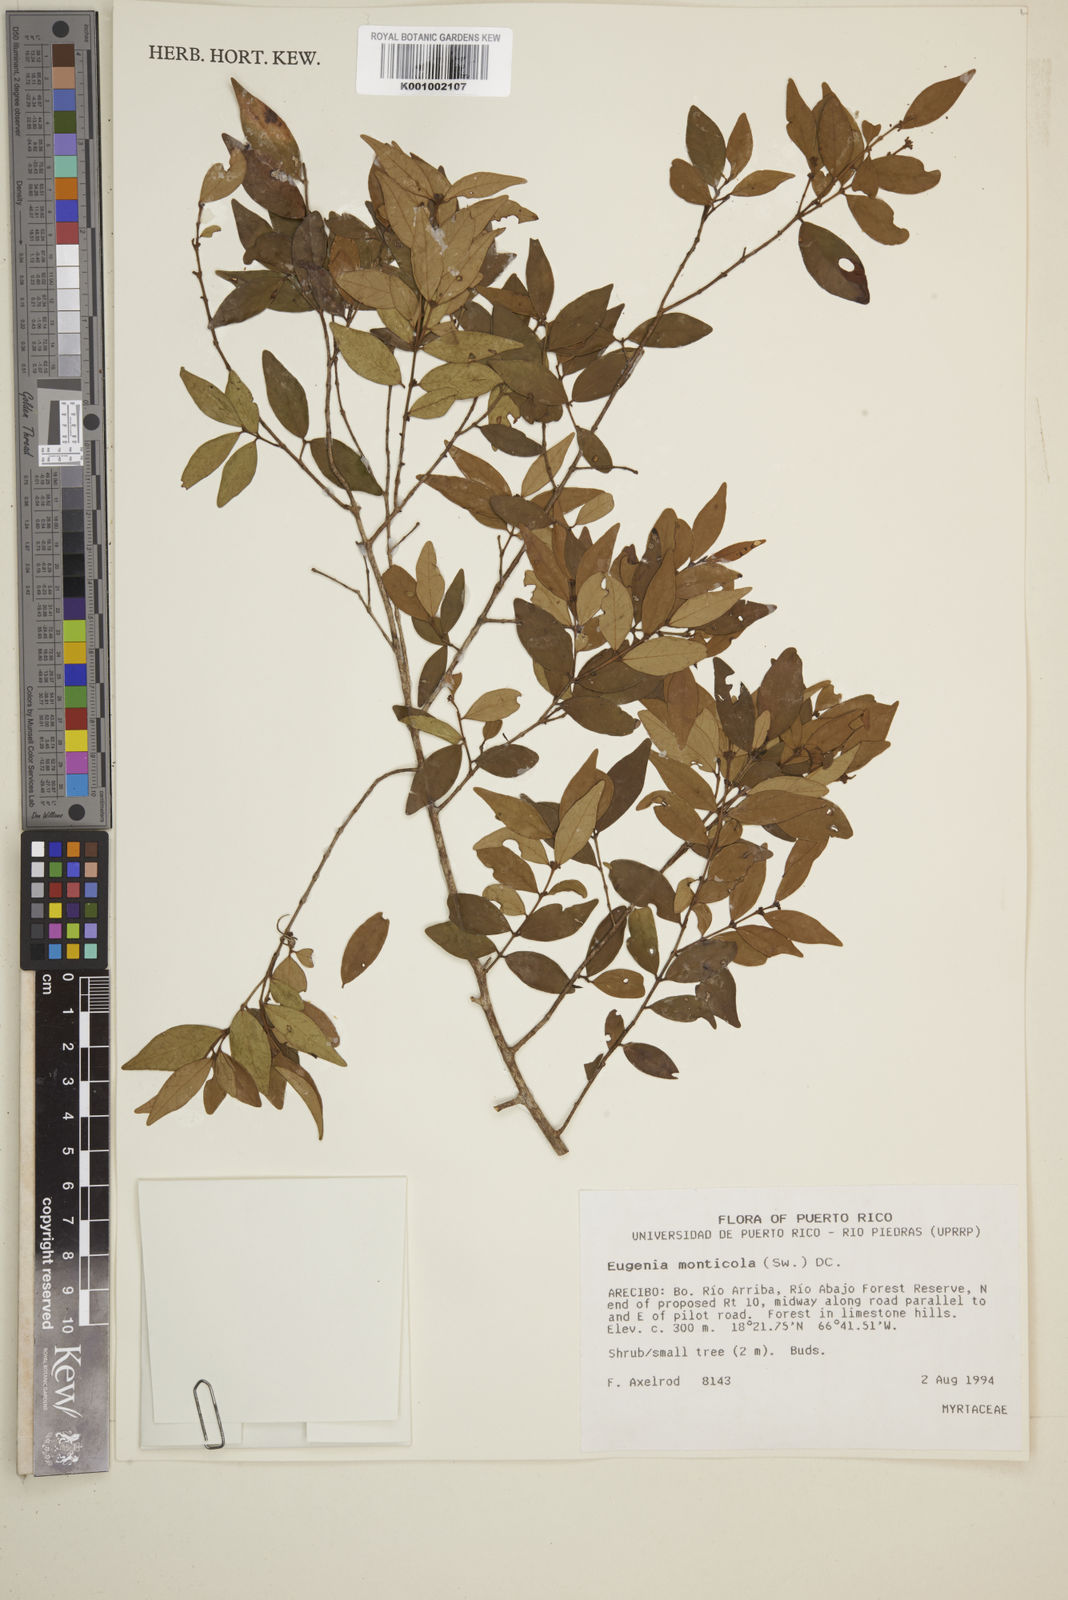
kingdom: Plantae
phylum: Tracheophyta
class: Magnoliopsida
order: Myrtales
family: Myrtaceae
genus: Eugenia
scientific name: Eugenia monticola
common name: Birds berry
